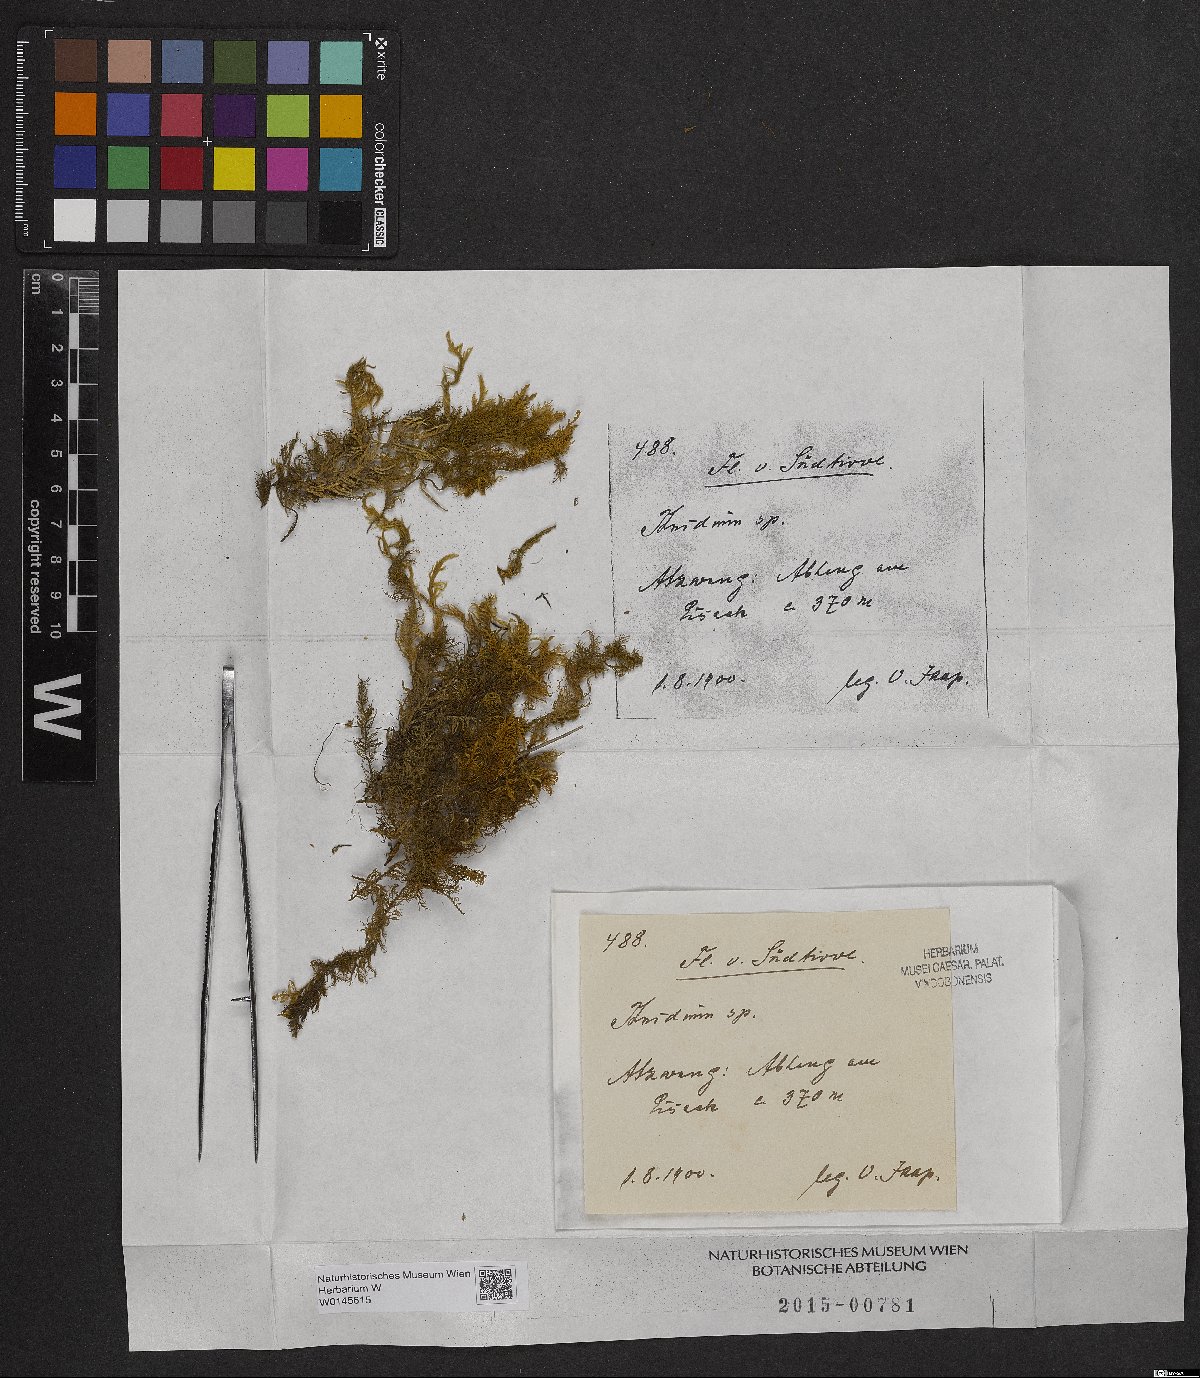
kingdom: Plantae
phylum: Bryophyta
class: Bryopsida
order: Hypnales
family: Thuidiaceae
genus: Thuidium
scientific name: Thuidium
